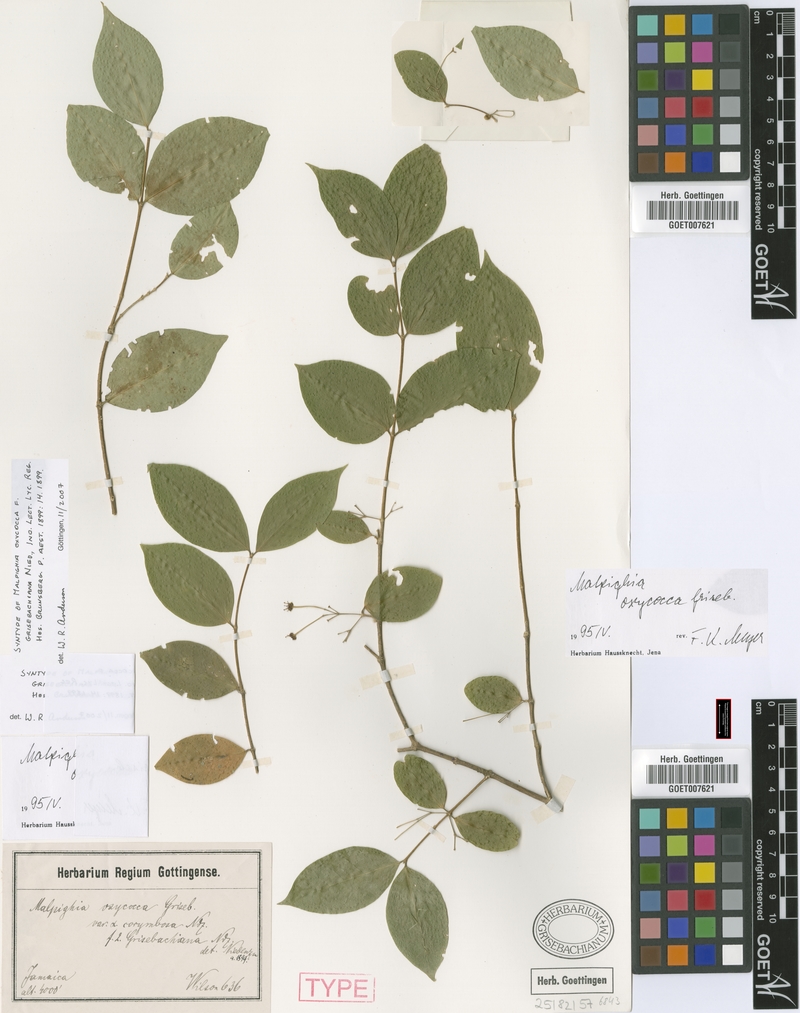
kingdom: Plantae
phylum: Tracheophyta
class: Magnoliopsida
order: Malpighiales
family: Malpighiaceae
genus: Malpighia
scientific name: Malpighia oxycocca
